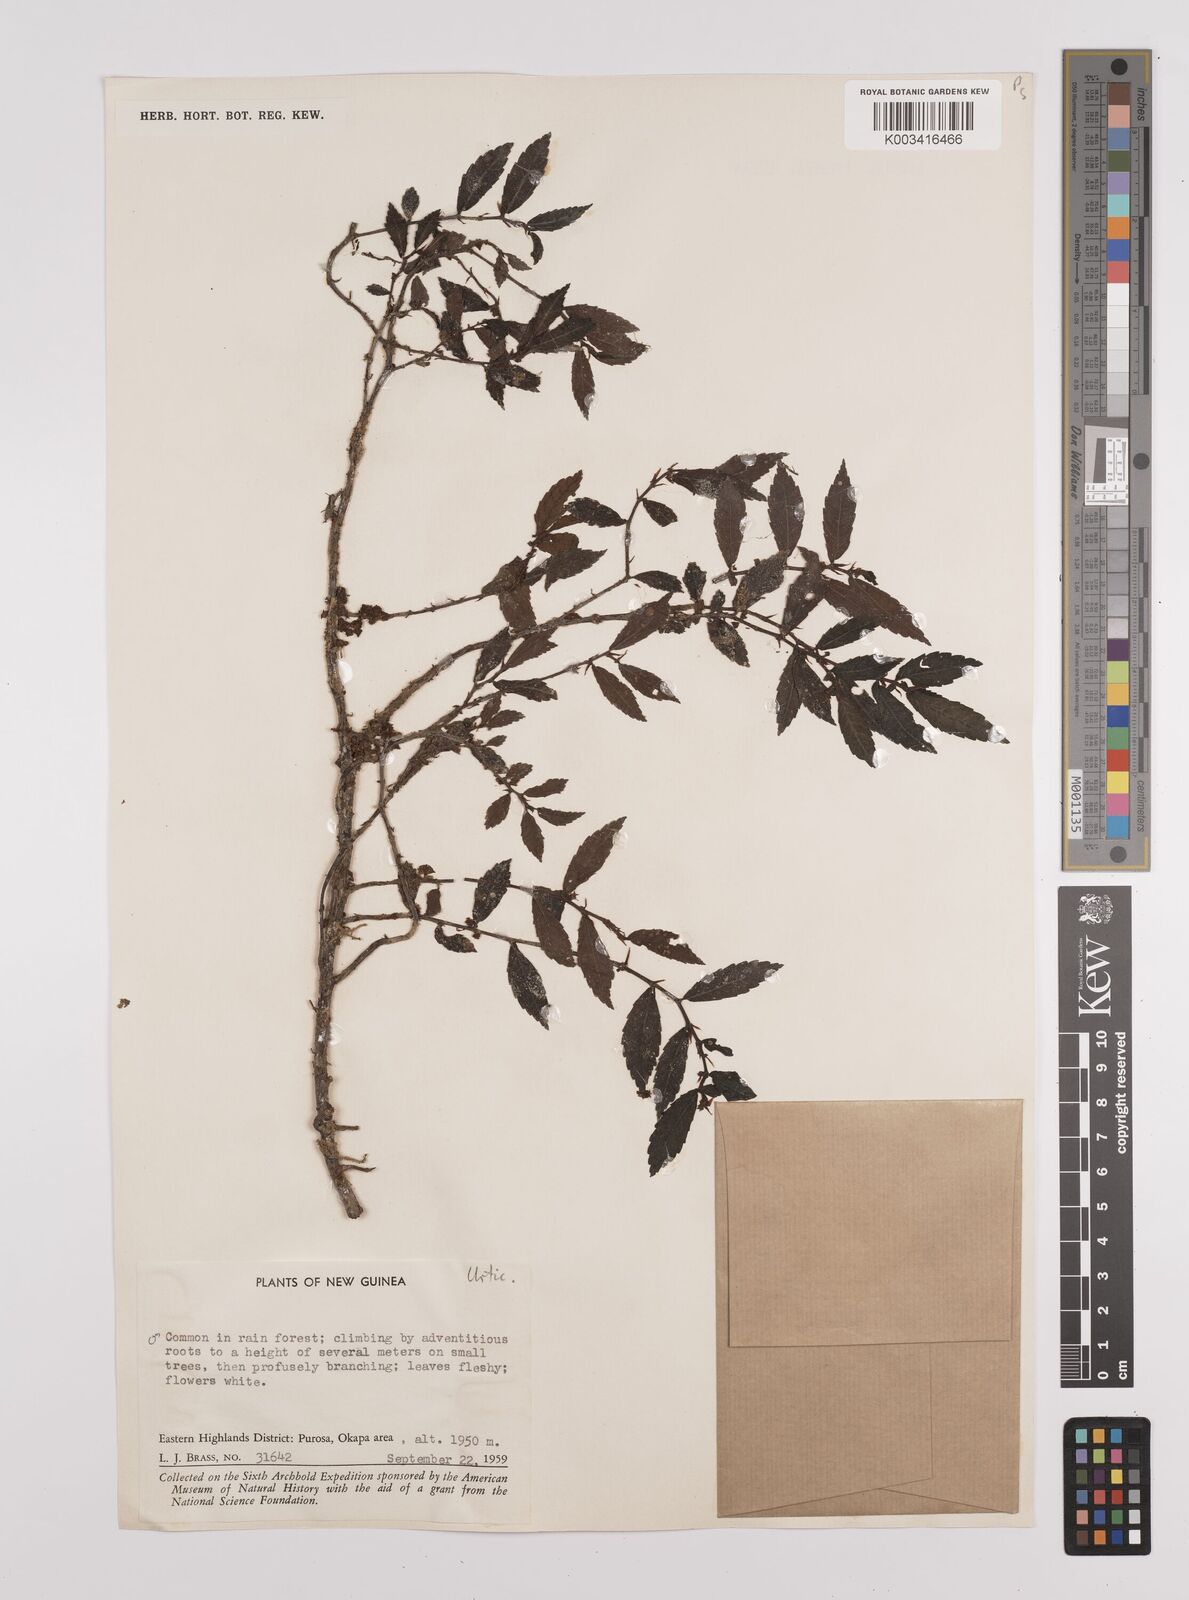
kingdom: Plantae
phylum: Tracheophyta
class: Magnoliopsida
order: Rosales
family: Urticaceae
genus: Elatostema
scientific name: Elatostema
